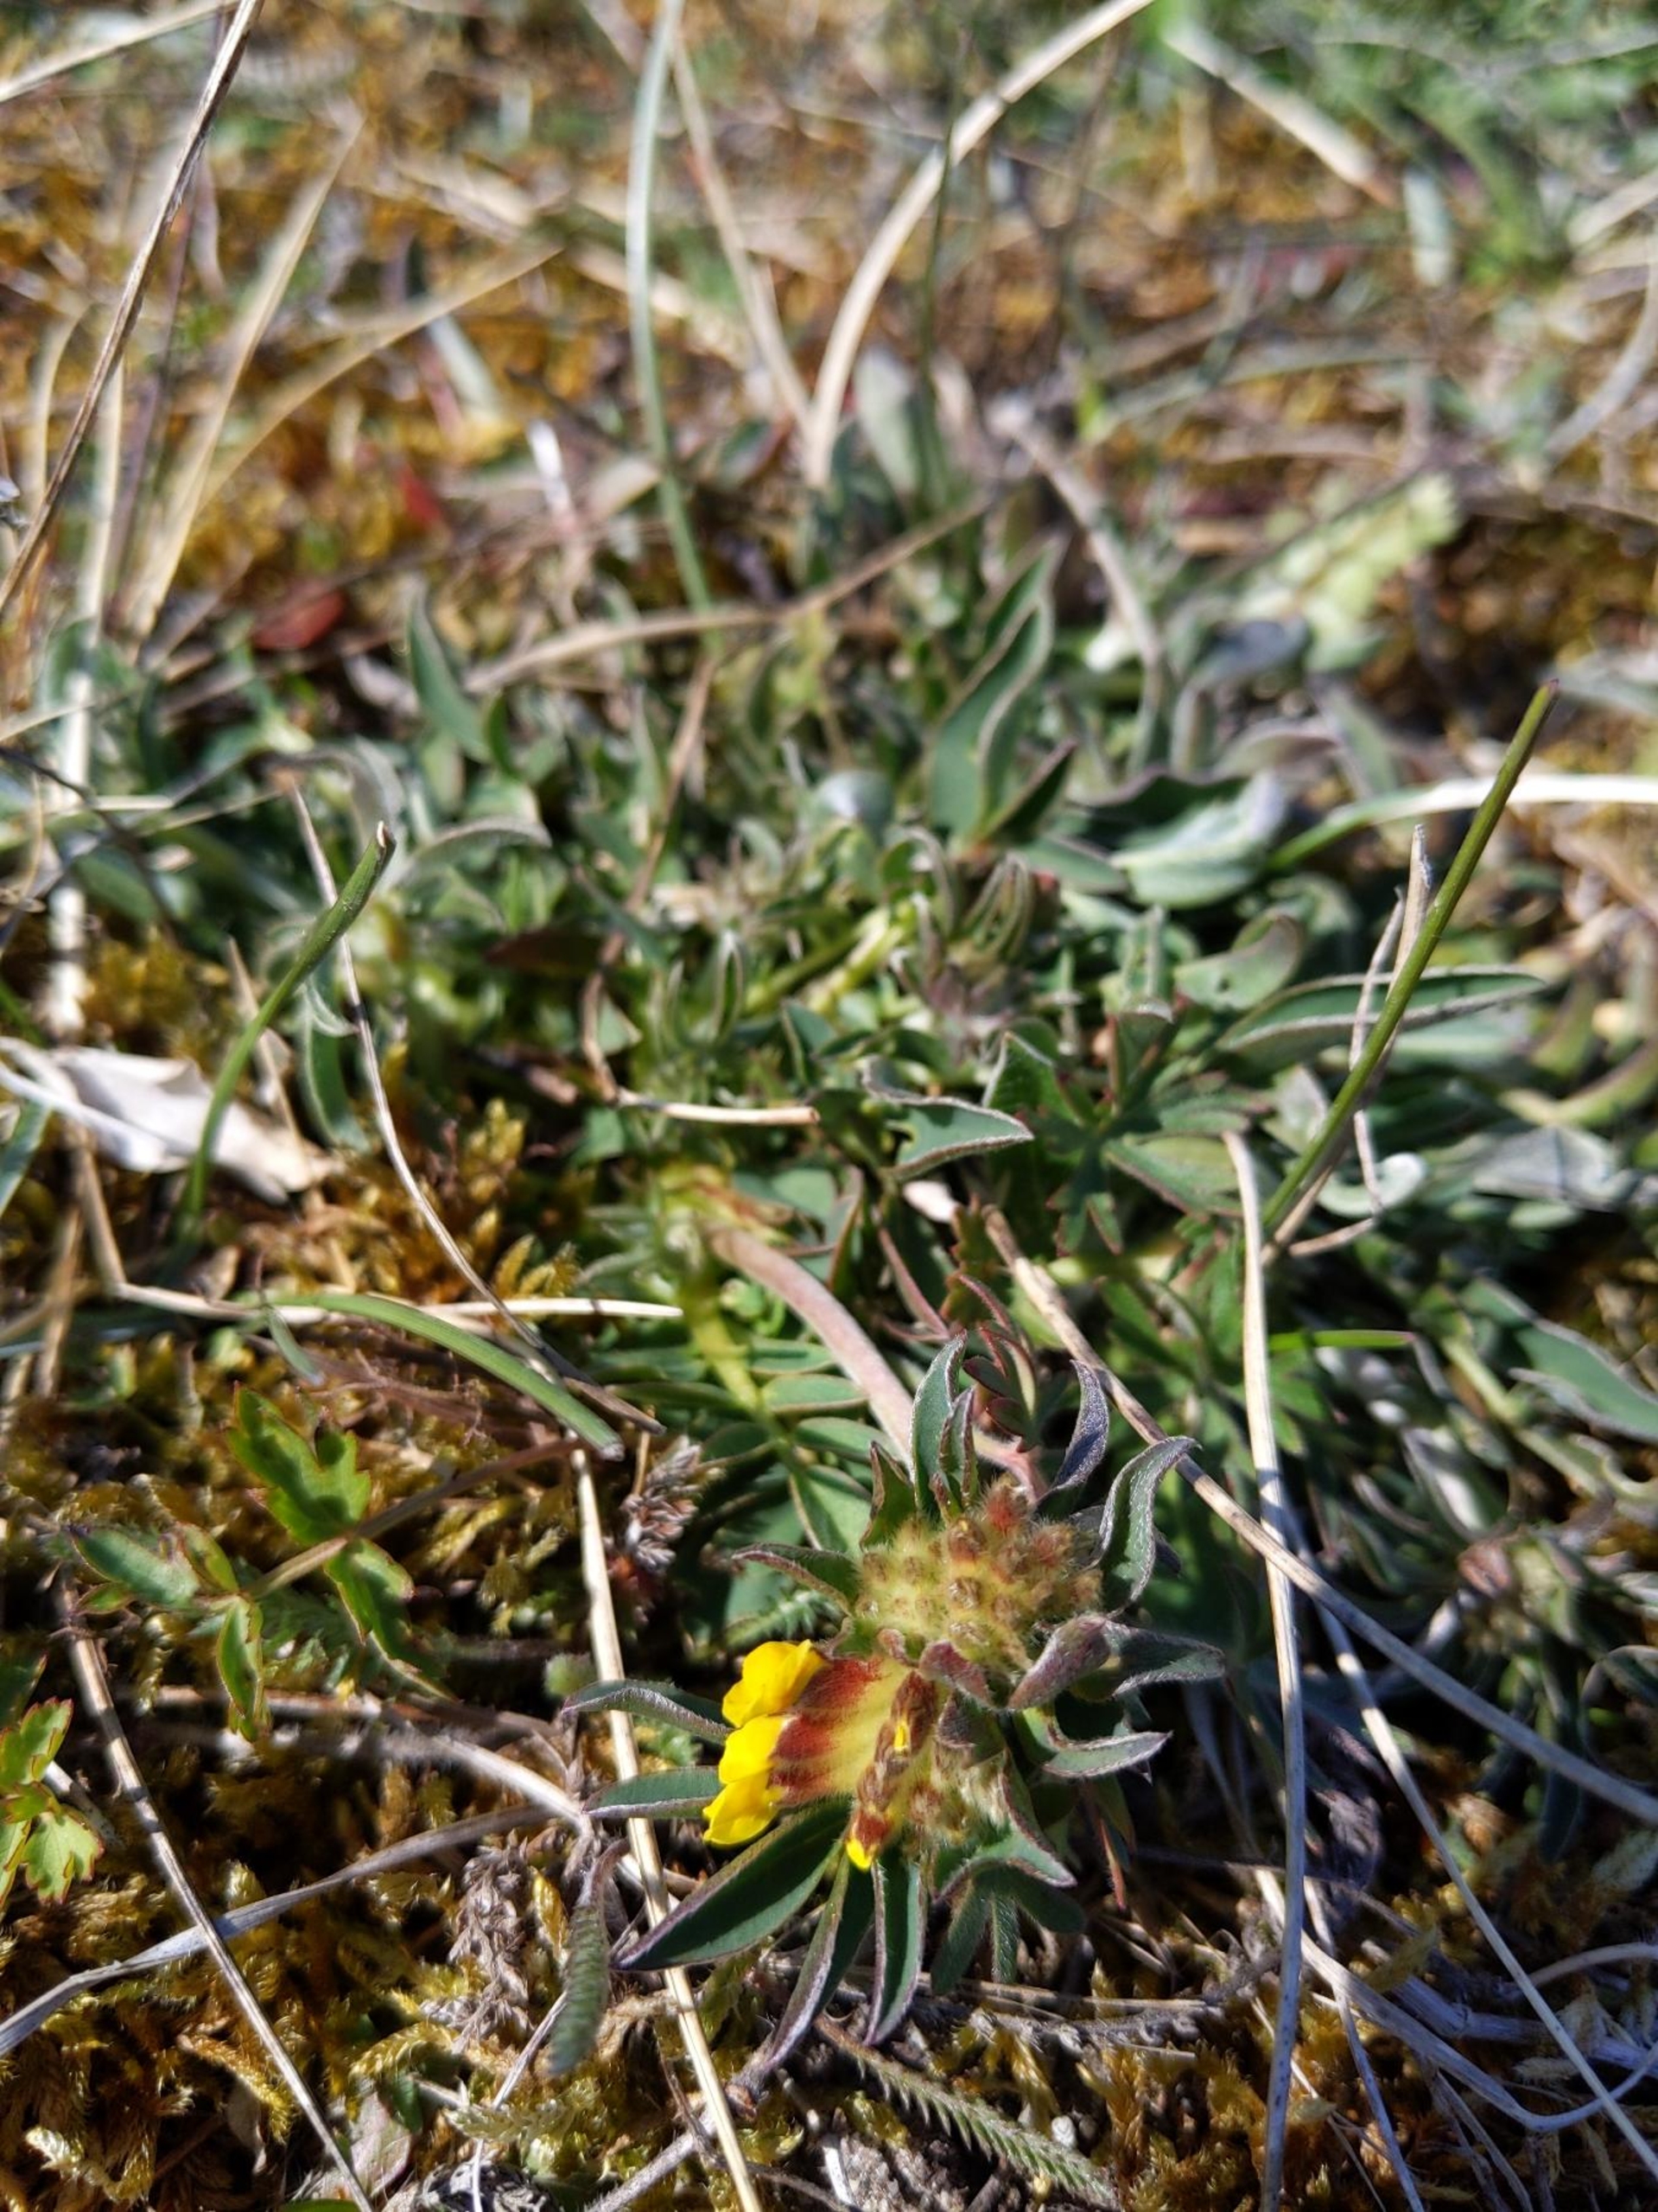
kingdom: Plantae
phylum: Tracheophyta
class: Magnoliopsida
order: Fabales
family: Fabaceae
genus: Anthyllis
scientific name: Anthyllis vulneraria
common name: Rundbælg
